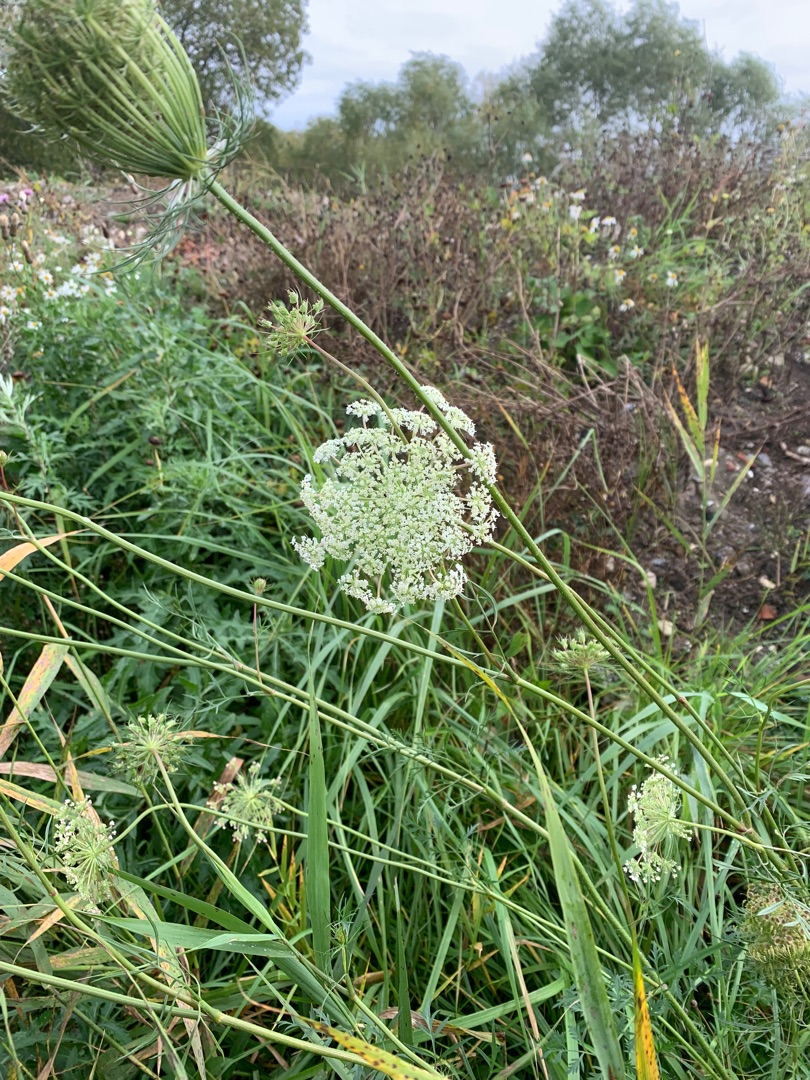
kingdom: Plantae
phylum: Tracheophyta
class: Magnoliopsida
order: Apiales
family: Apiaceae
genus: Daucus
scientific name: Daucus carota
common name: Gulerod
